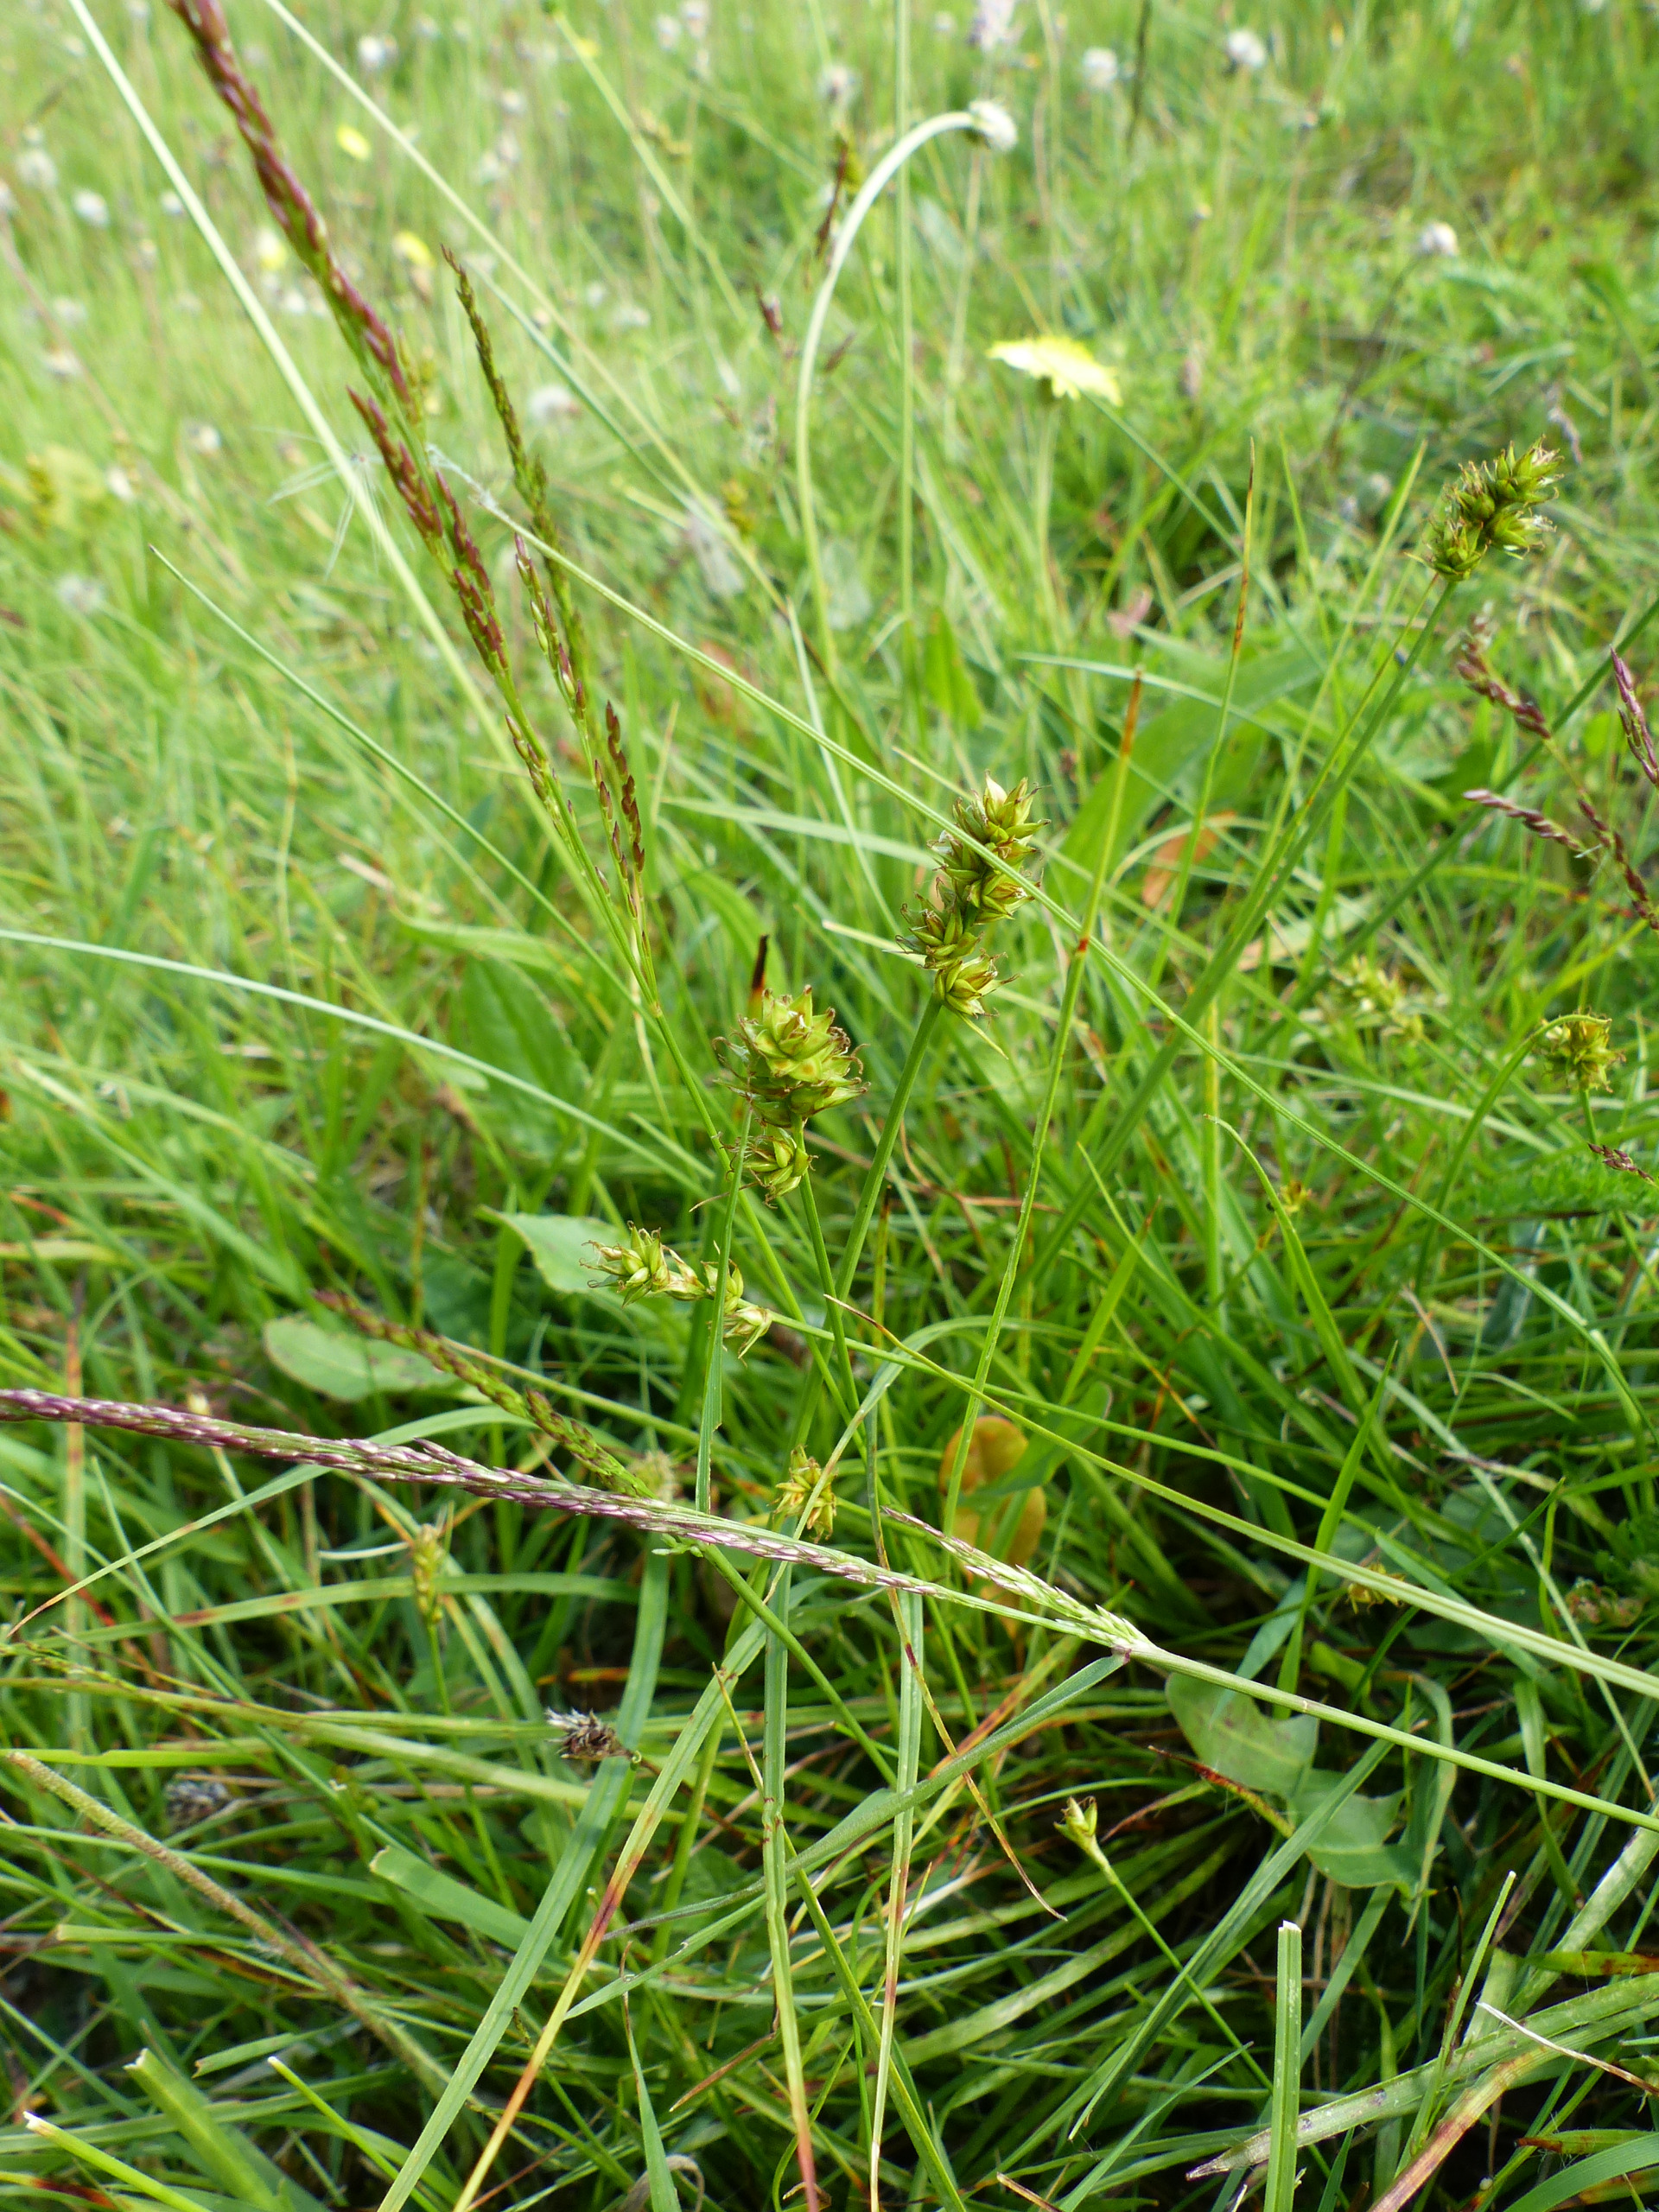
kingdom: Plantae
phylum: Tracheophyta
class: Liliopsida
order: Poales
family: Cyperaceae
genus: Carex
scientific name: Carex pairae
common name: Pigget star
